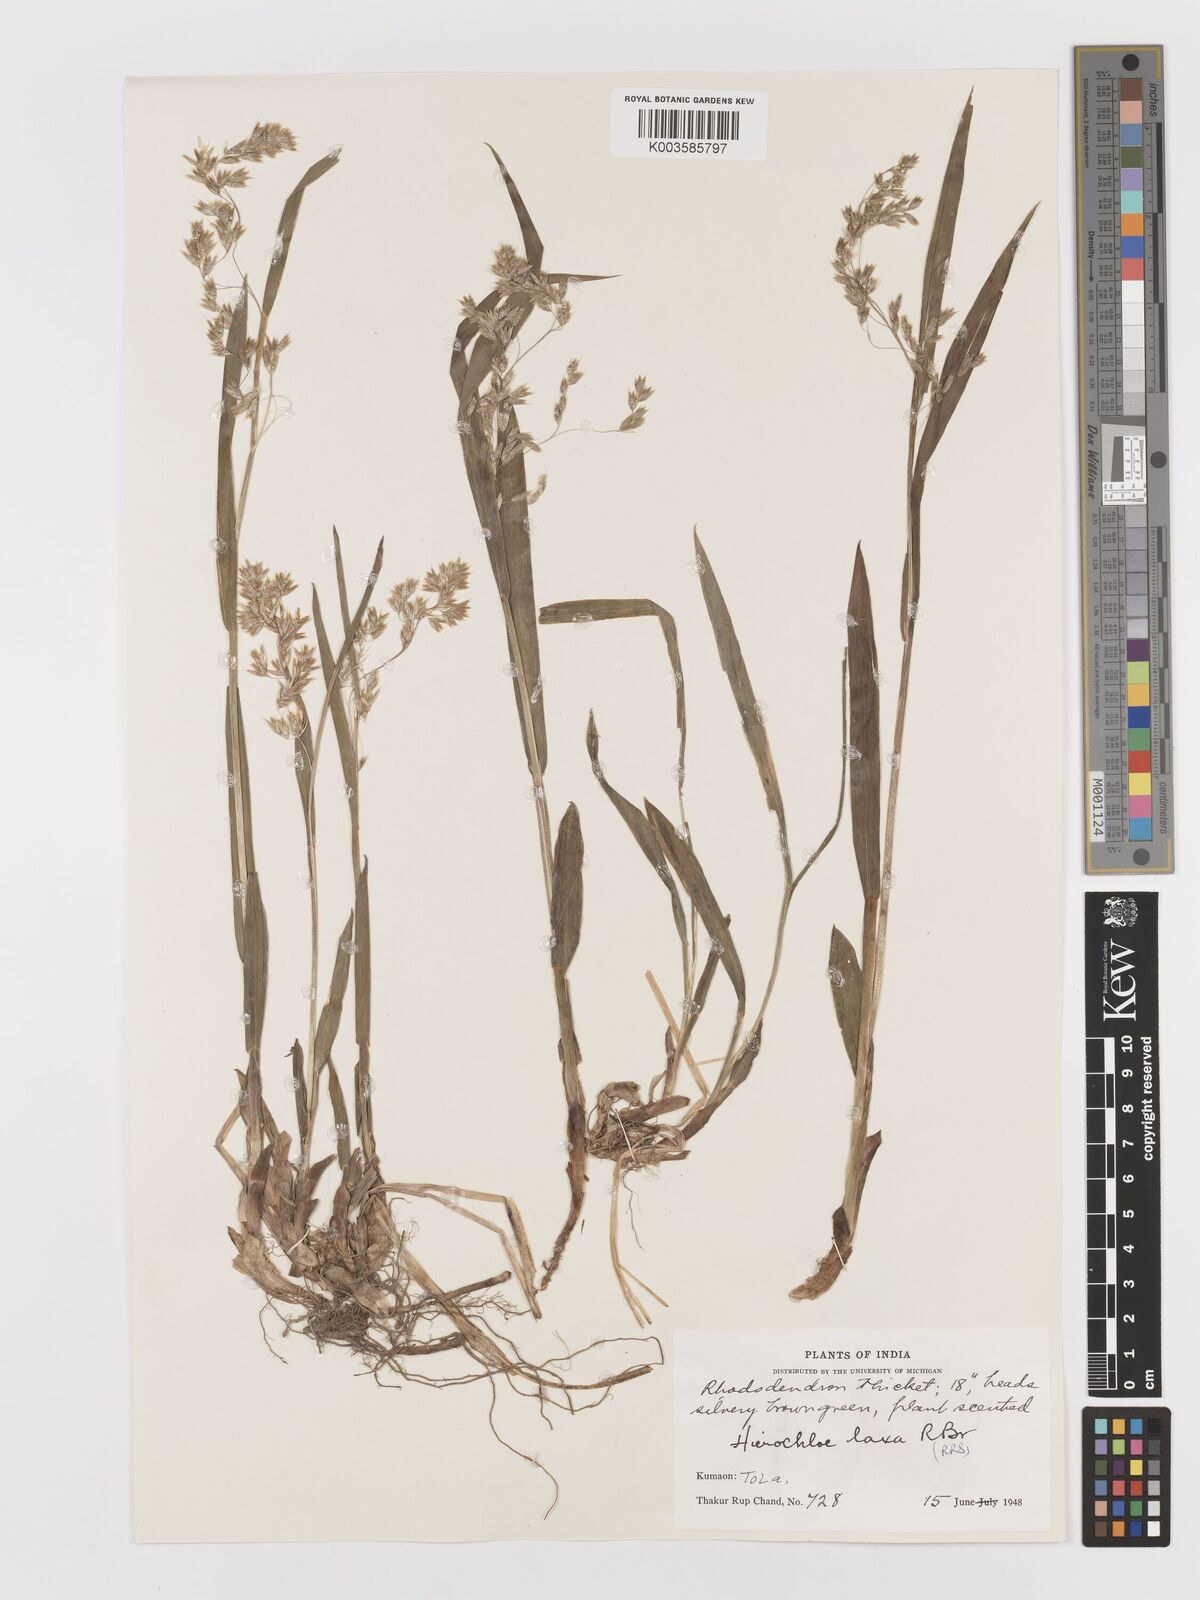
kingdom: Plantae
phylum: Tracheophyta
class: Liliopsida
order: Poales
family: Poaceae
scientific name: Poaceae
